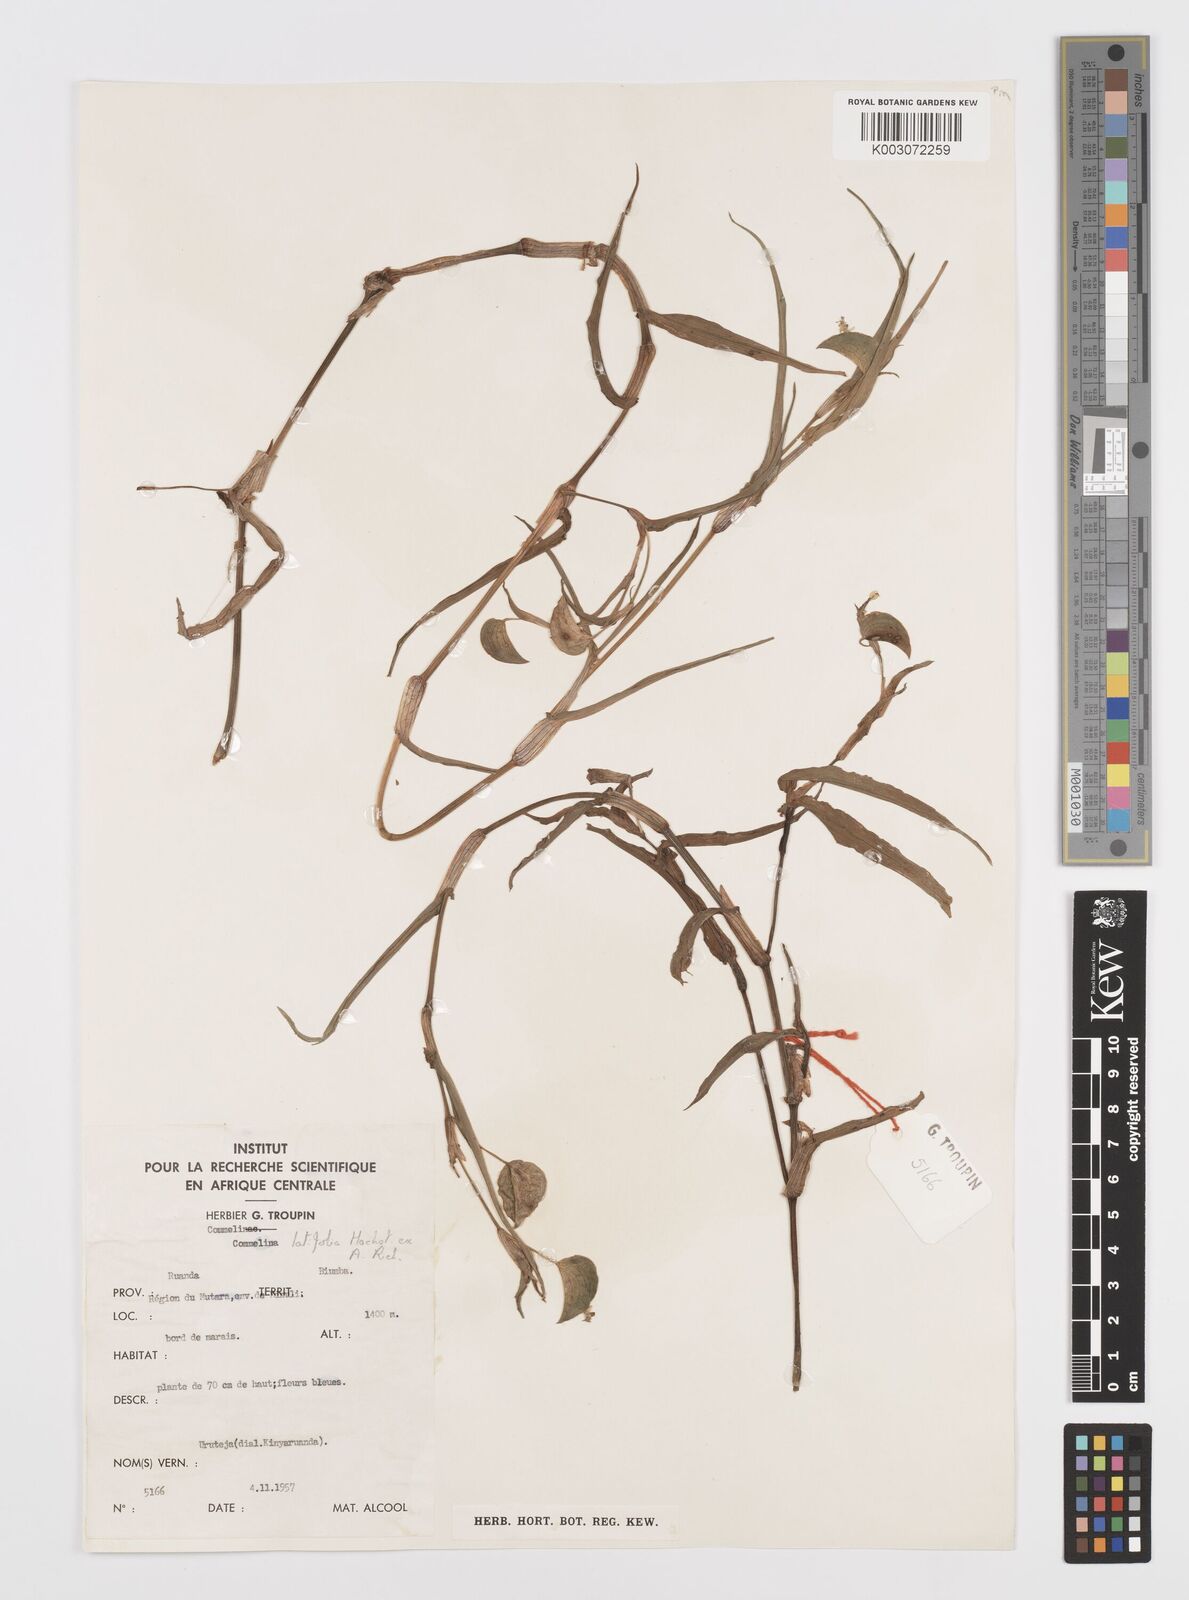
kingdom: Plantae
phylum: Tracheophyta
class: Liliopsida
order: Commelinales
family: Commelinaceae
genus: Commelina
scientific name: Commelina latifolia
